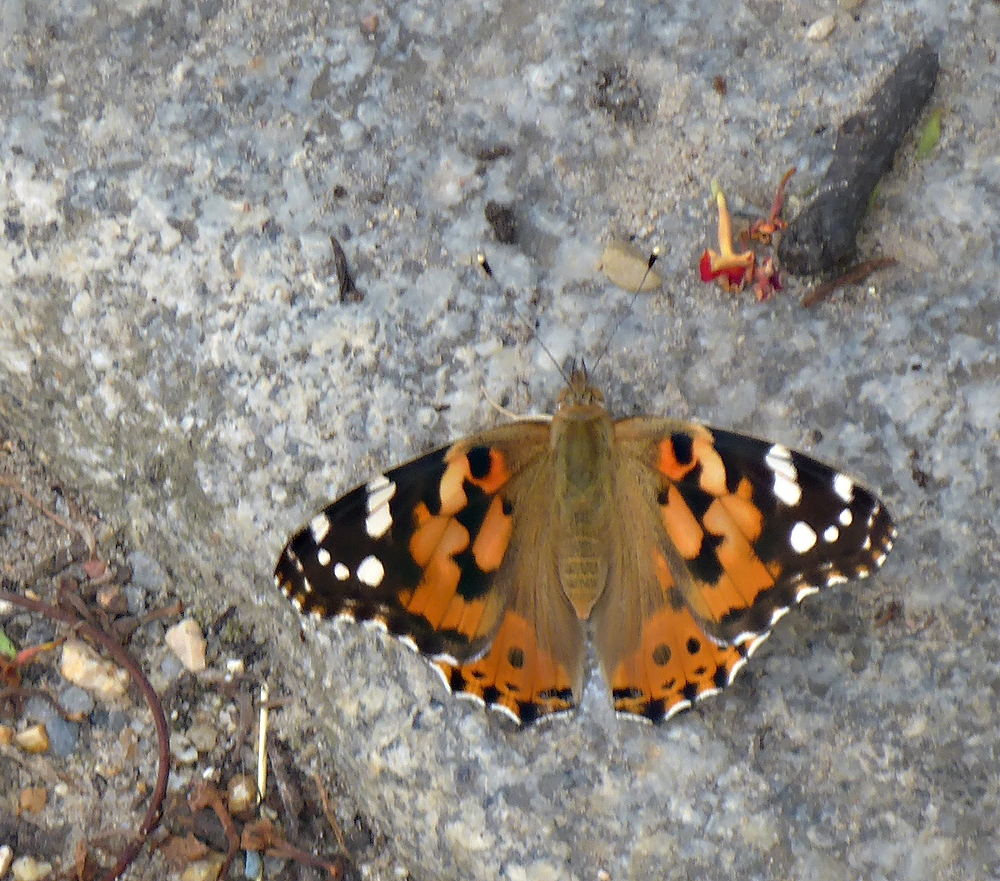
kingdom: Animalia
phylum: Arthropoda
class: Insecta
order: Lepidoptera
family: Nymphalidae
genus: Vanessa
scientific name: Vanessa cardui
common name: Painted lady
